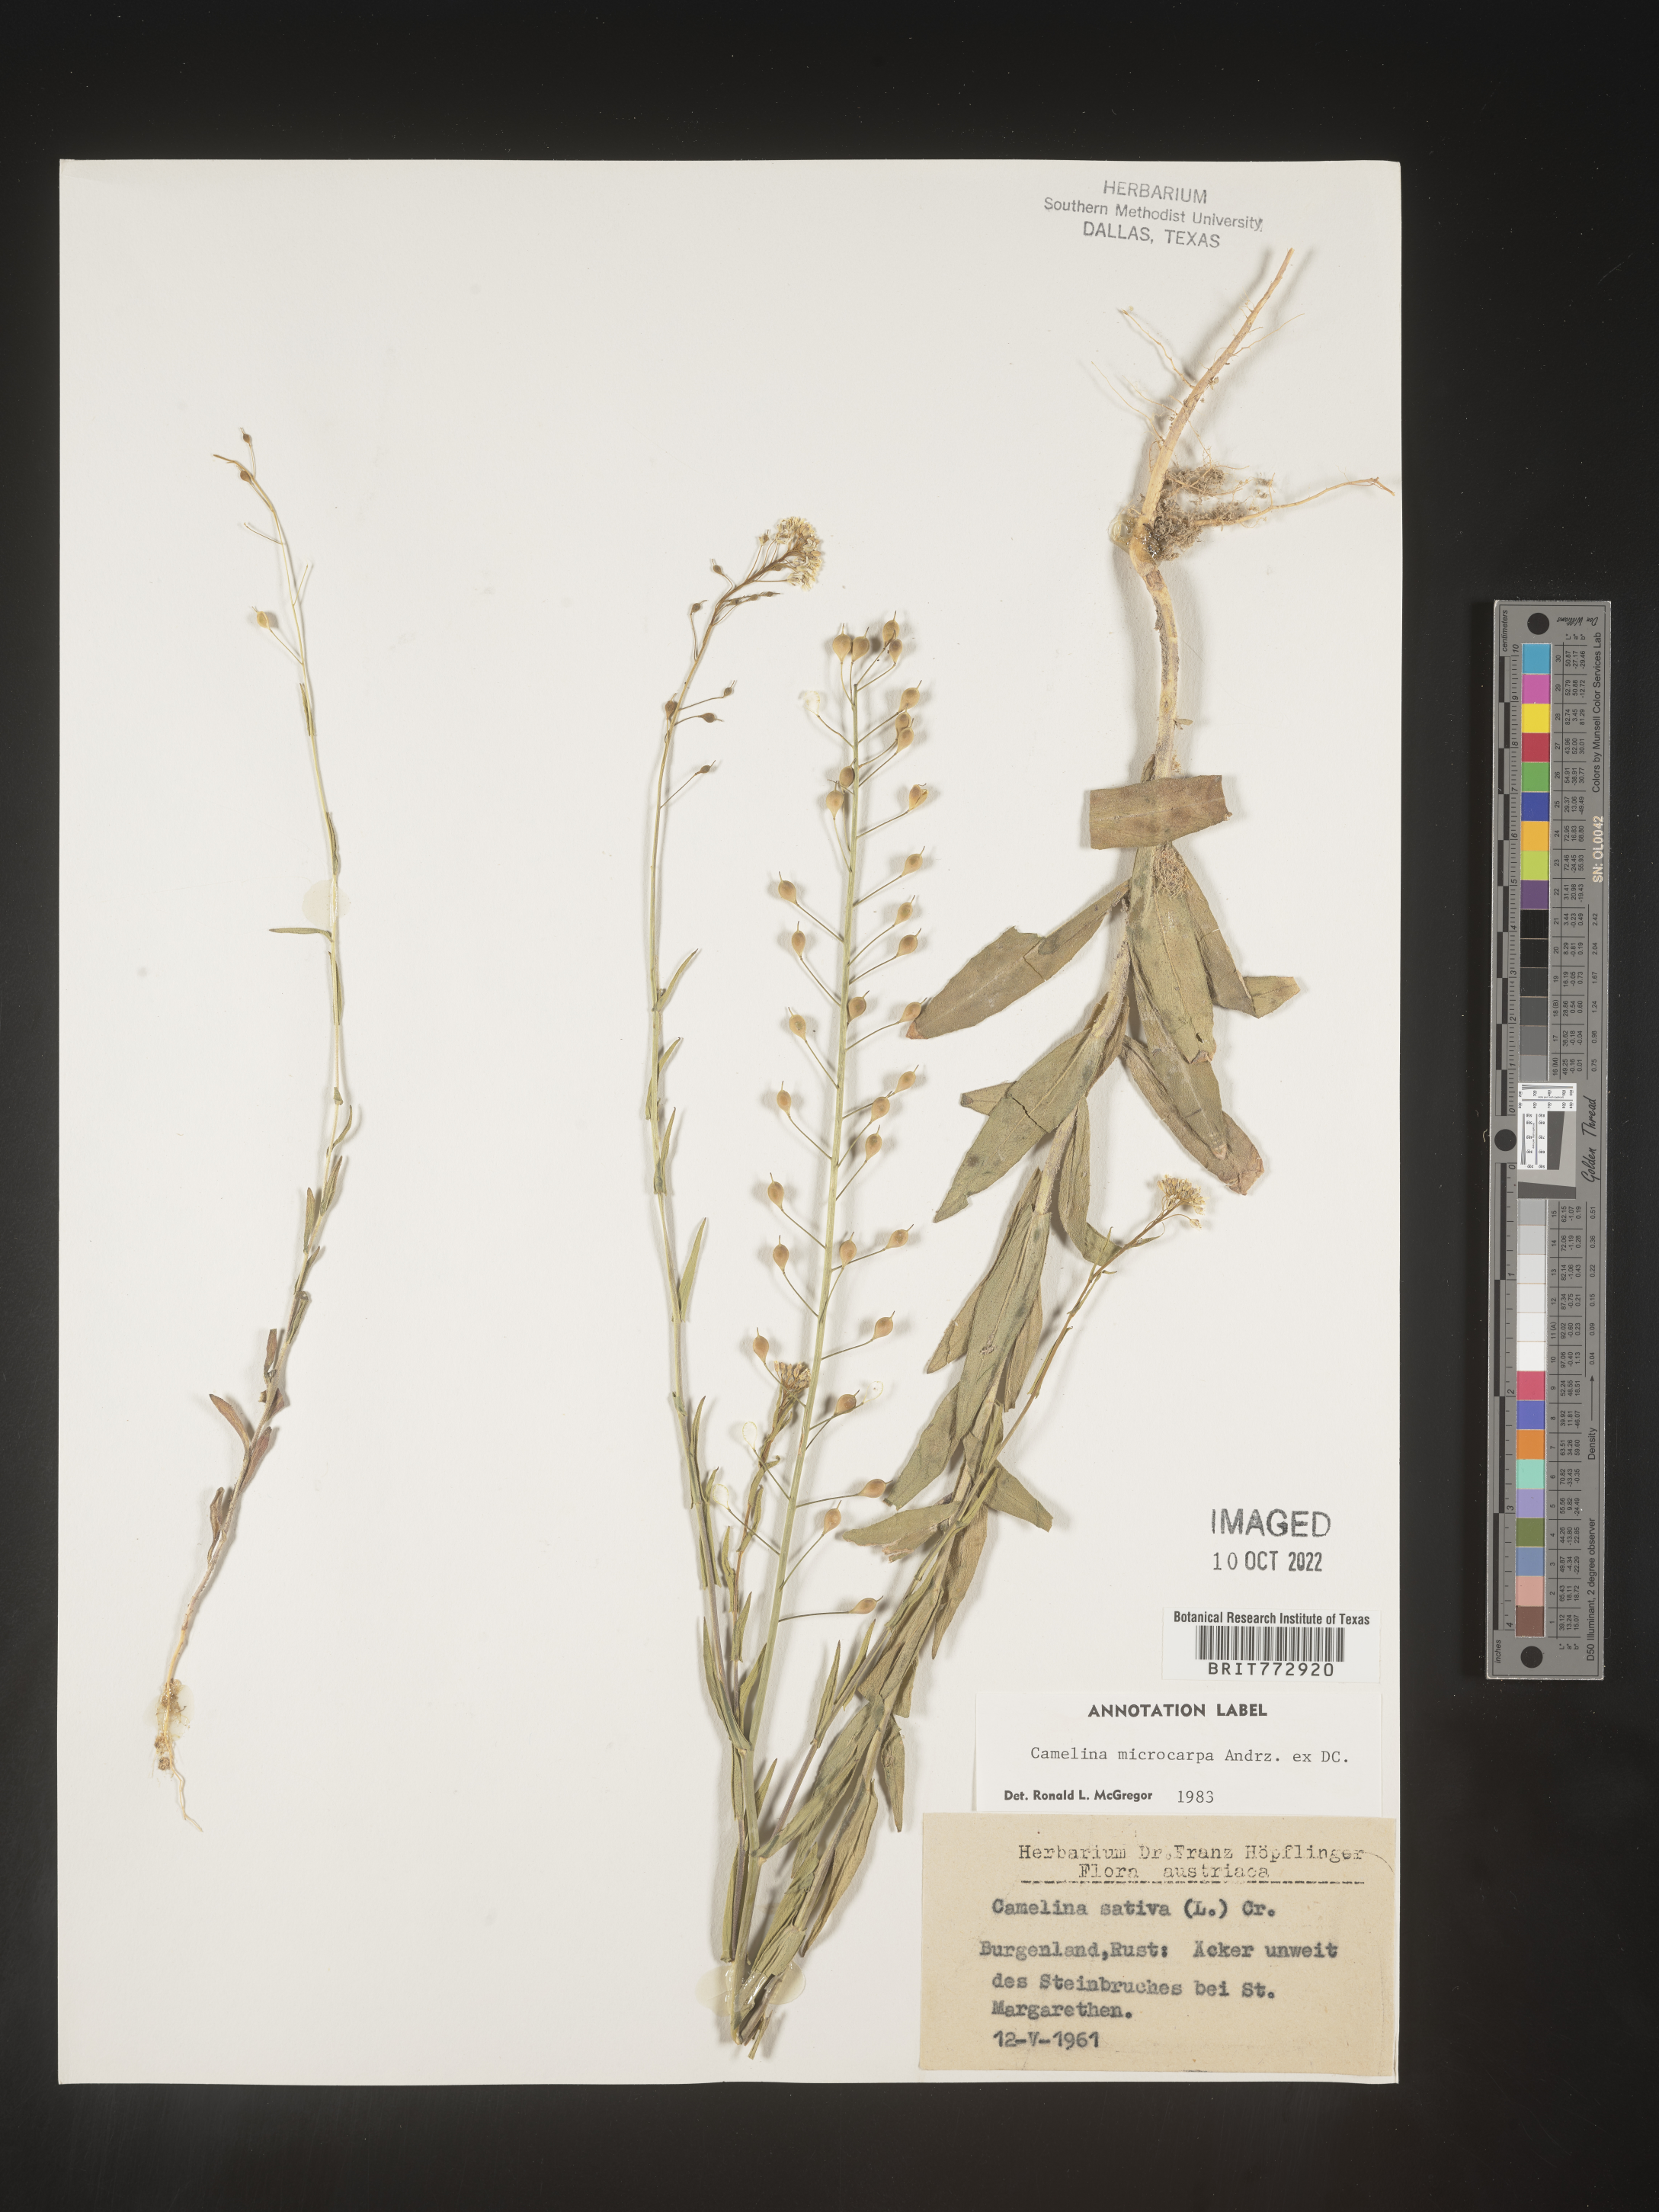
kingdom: Plantae
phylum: Tracheophyta
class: Magnoliopsida
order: Brassicales
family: Brassicaceae
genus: Camelina
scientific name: Camelina
